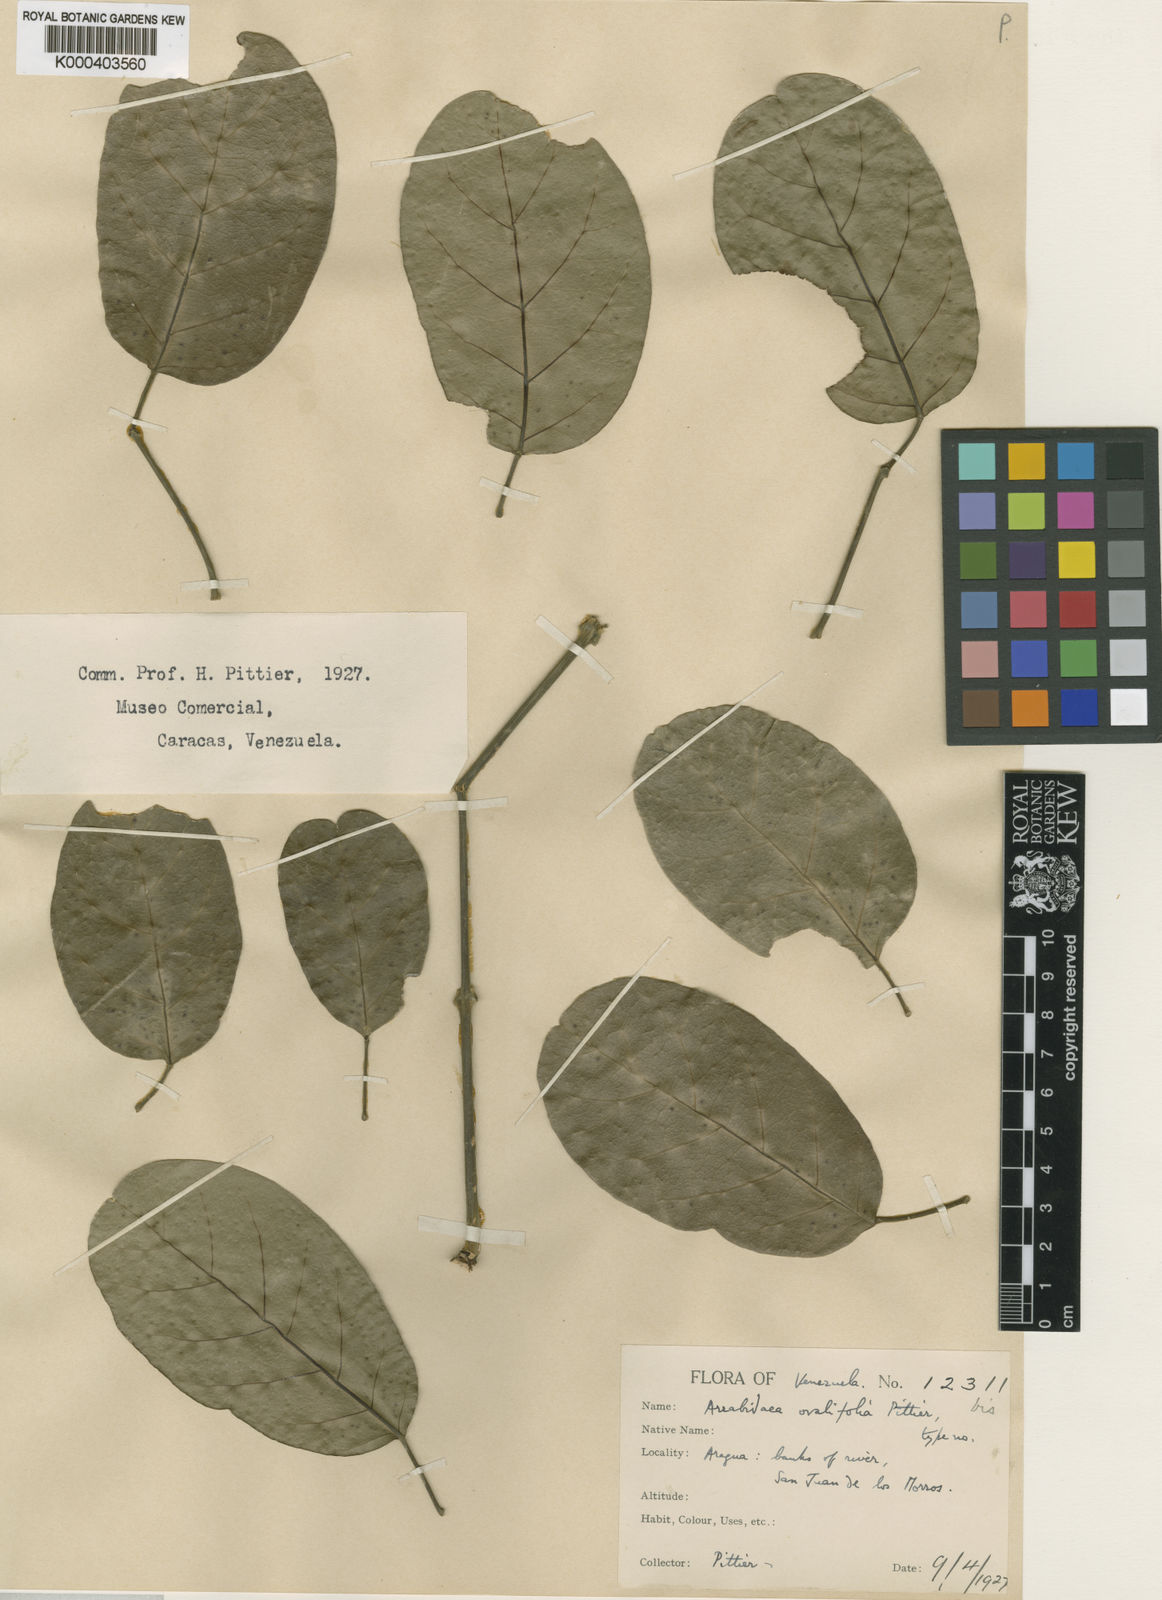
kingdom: Plantae
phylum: Tracheophyta
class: Magnoliopsida
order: Lamiales
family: Bignoniaceae
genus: Tanaecium
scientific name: Tanaecium
